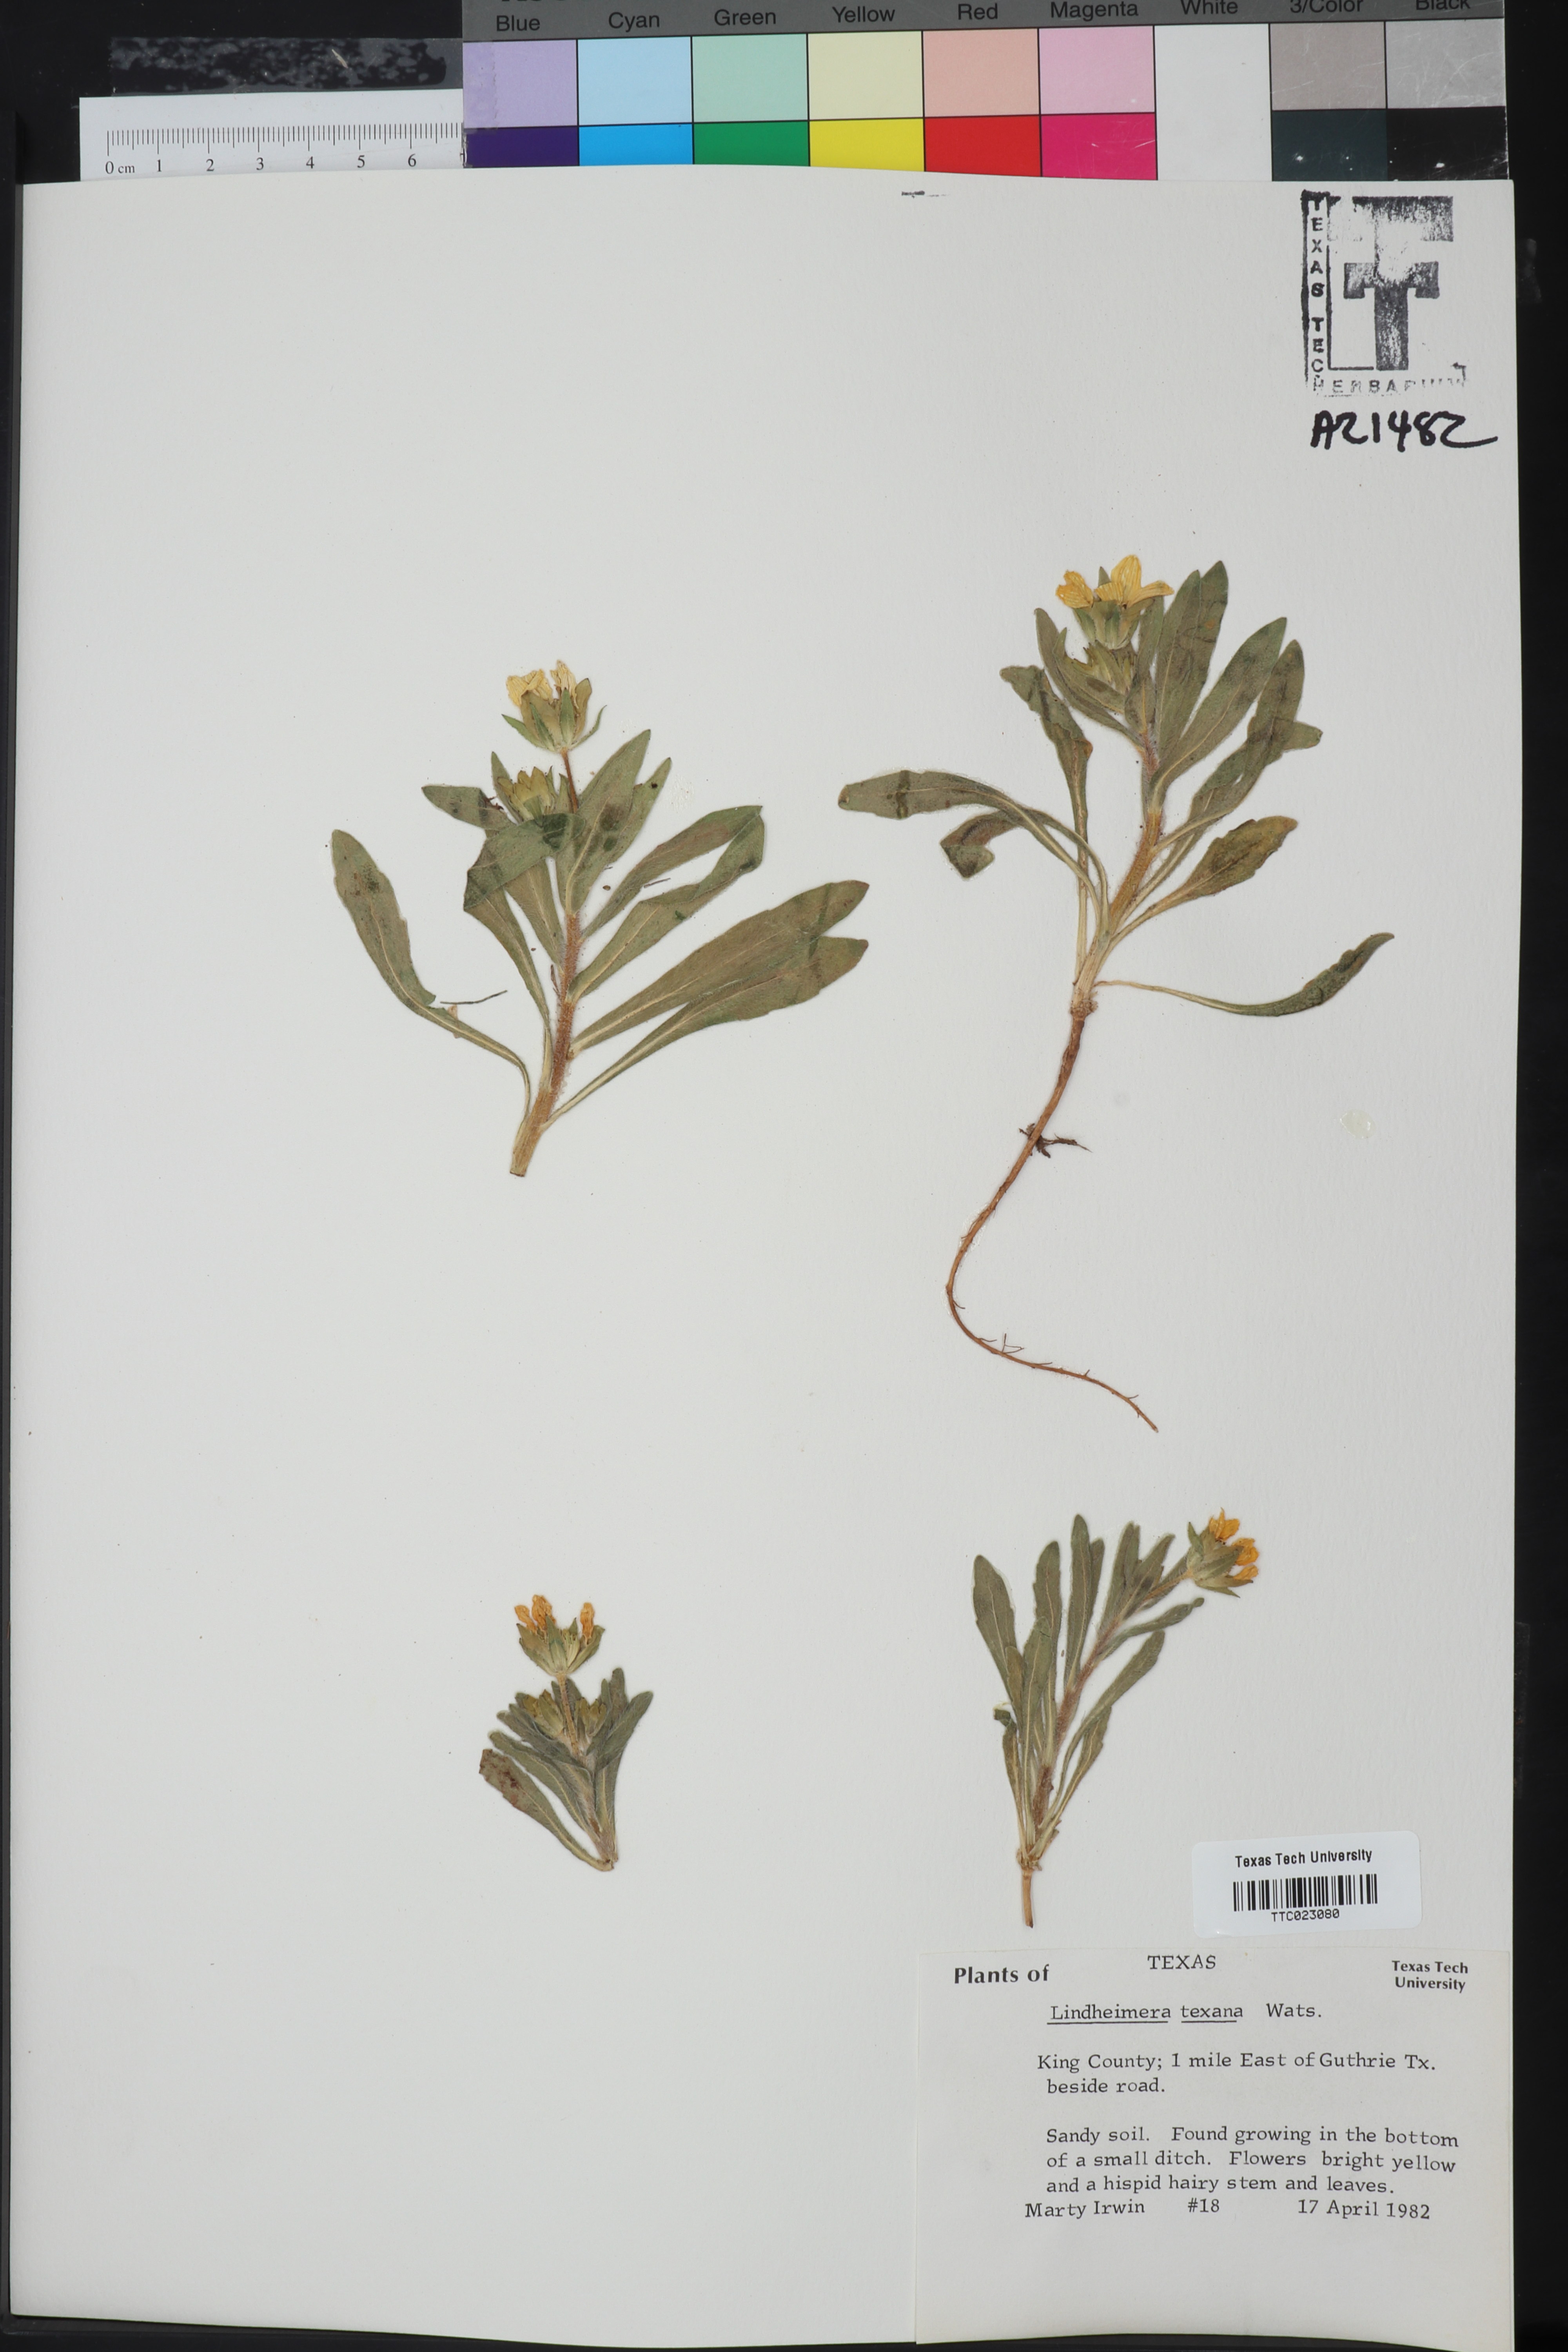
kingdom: Plantae
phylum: Tracheophyta
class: Magnoliopsida
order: Asterales
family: Asteraceae
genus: Lindheimera
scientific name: Lindheimera texana
